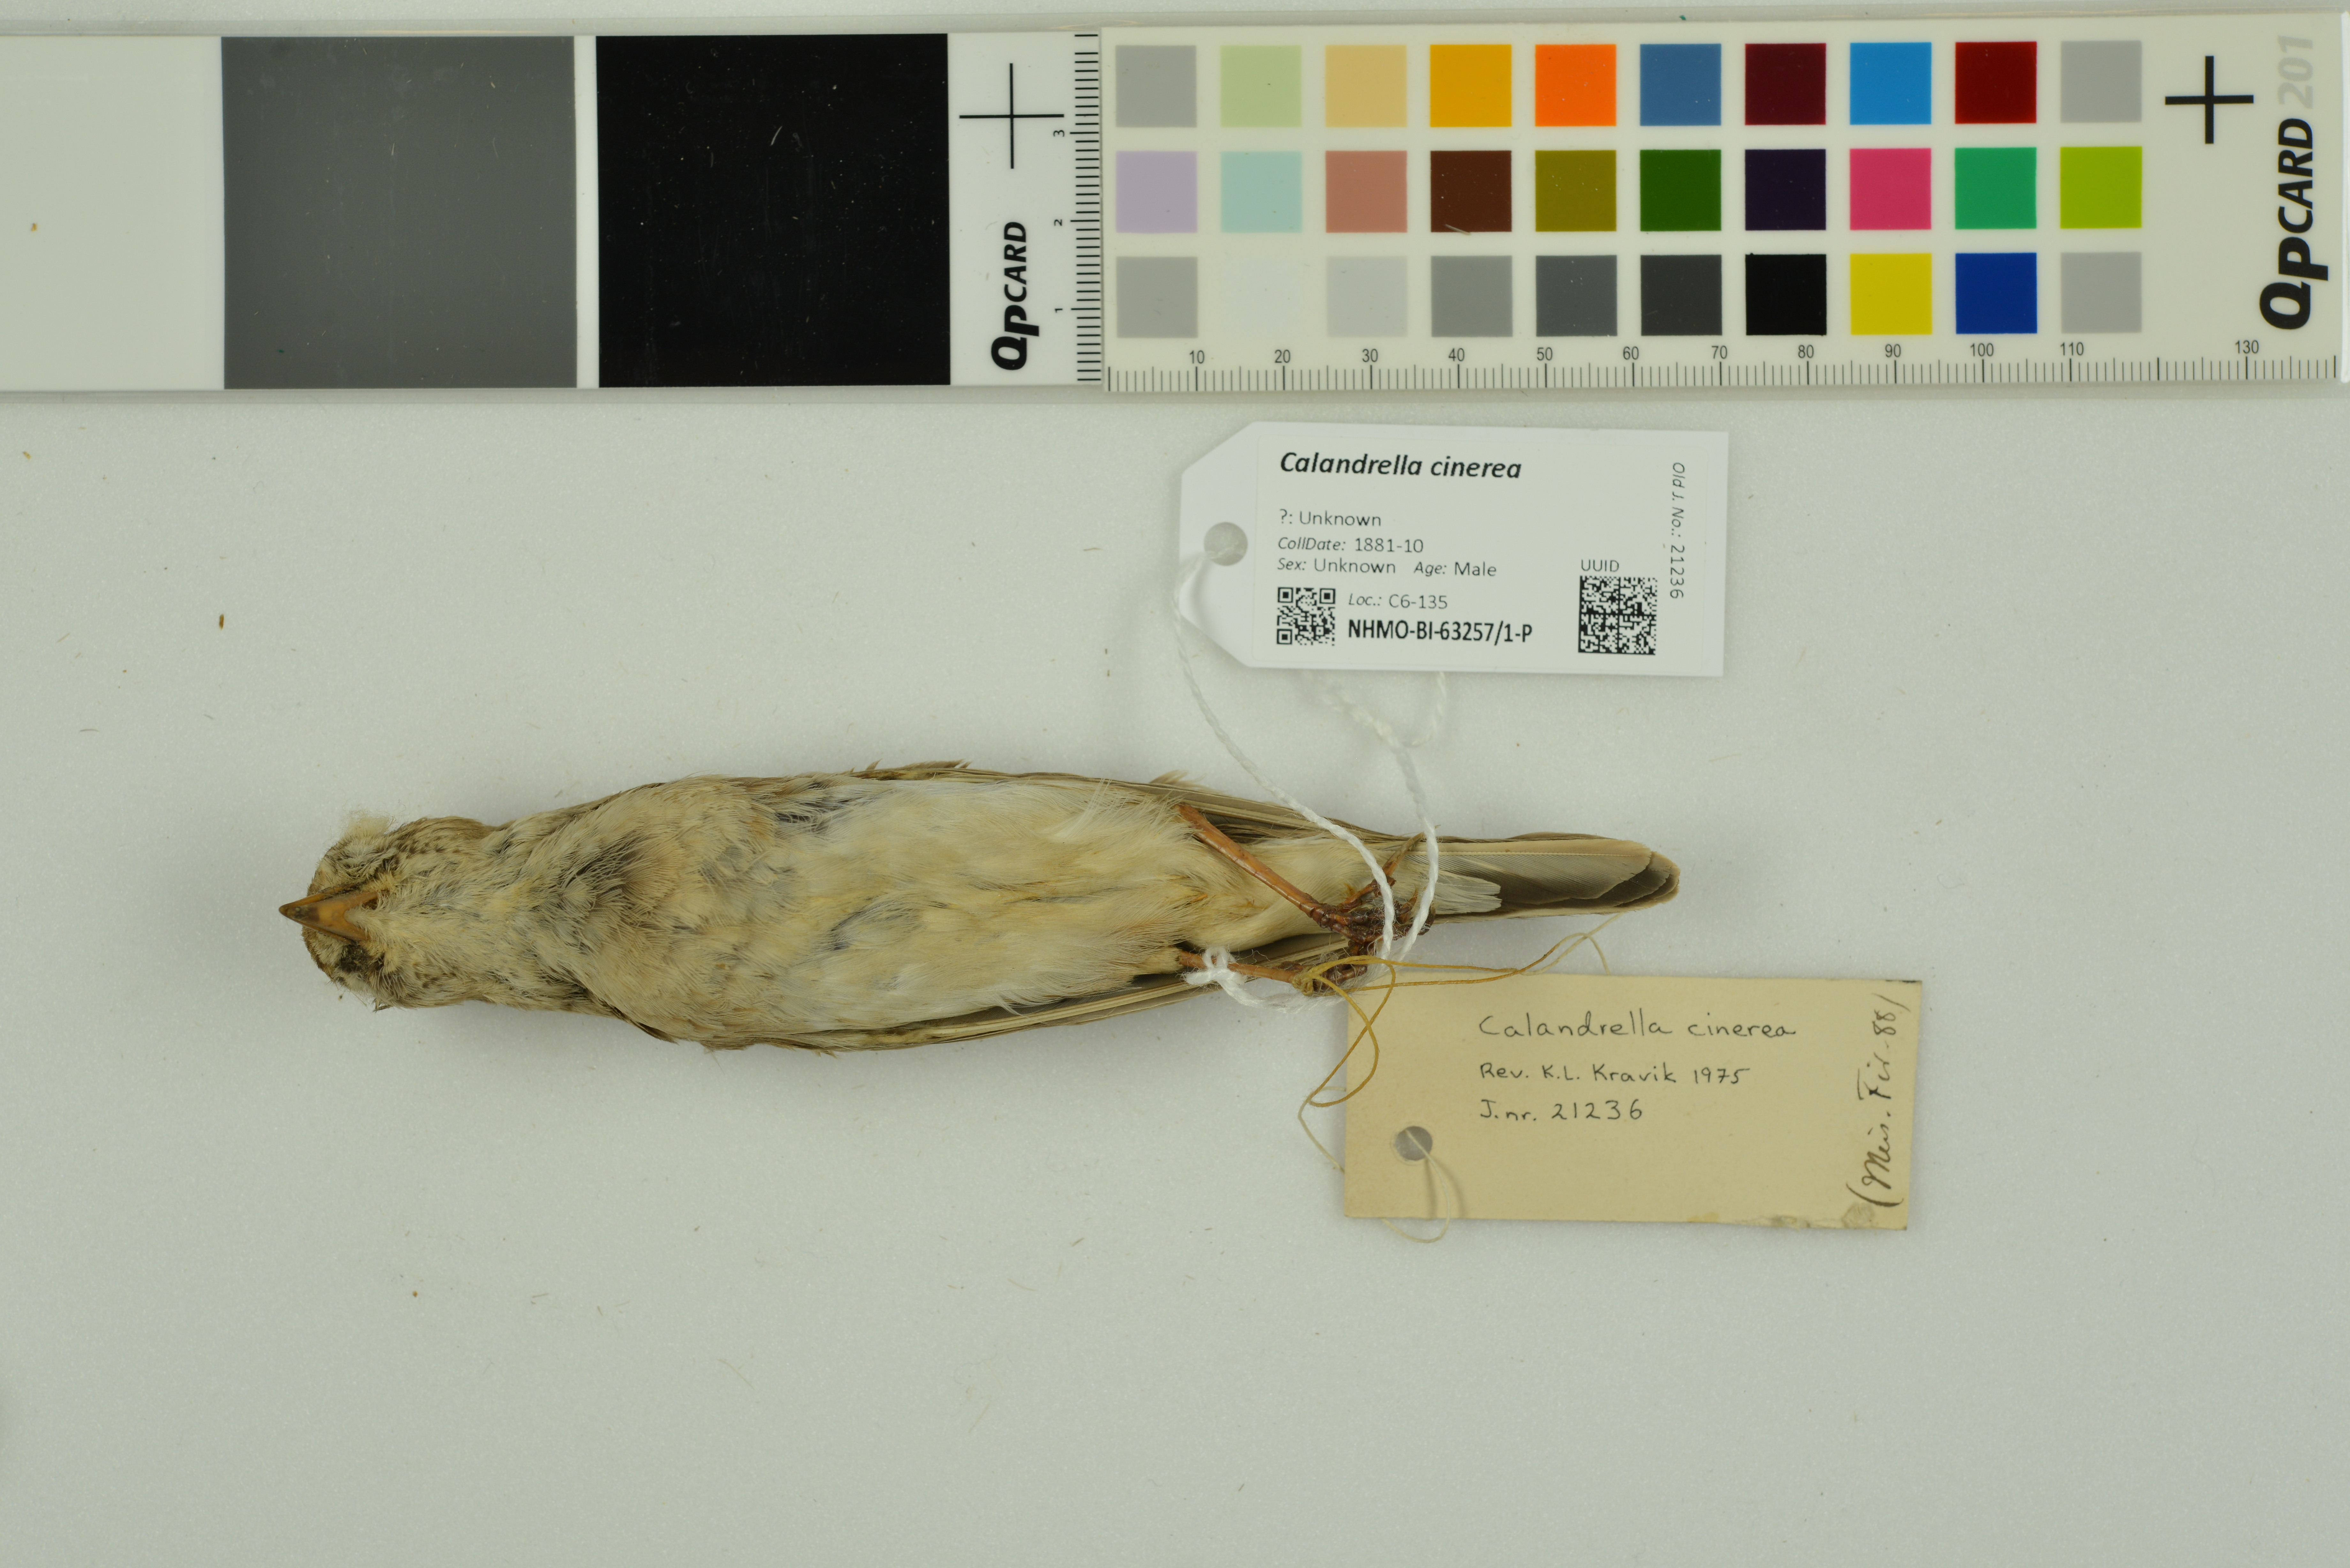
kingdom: Animalia
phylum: Chordata
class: Aves
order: Passeriformes
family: Alaudidae
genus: Calandrella
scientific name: Calandrella cinerea
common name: Red-capped lark
